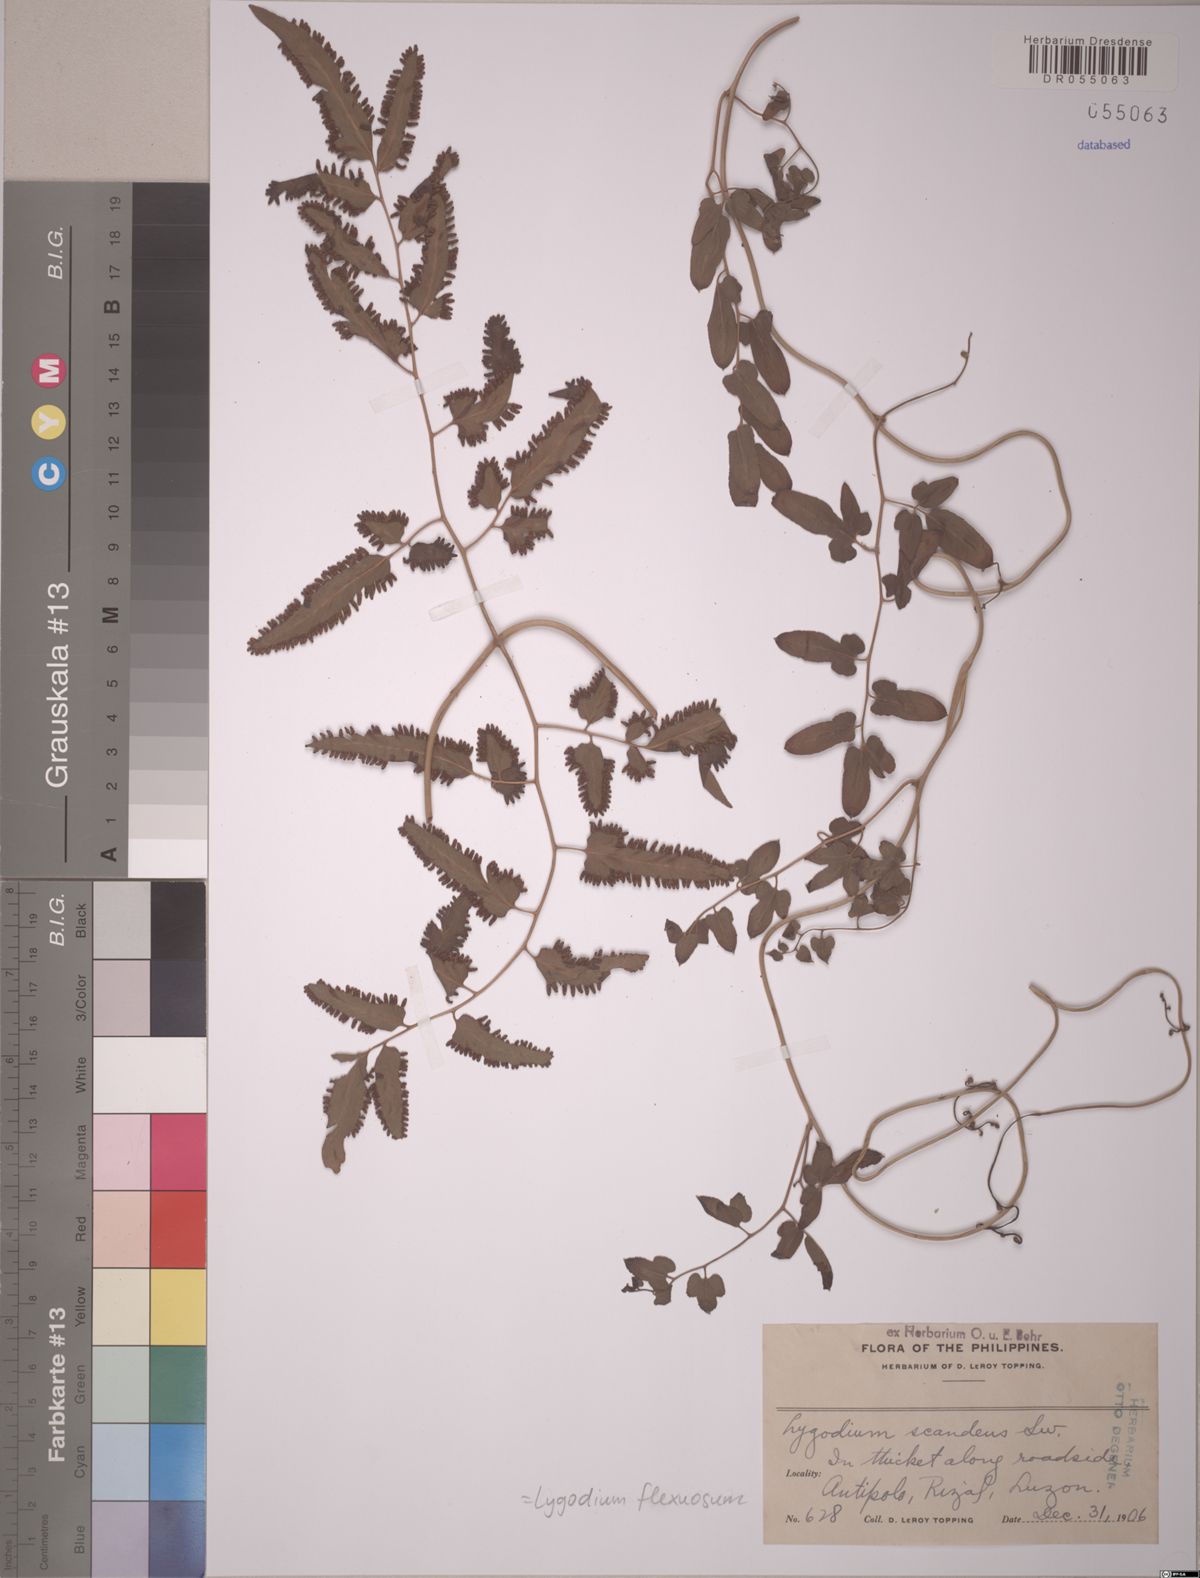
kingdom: Plantae
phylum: Tracheophyta
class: Polypodiopsida
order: Schizaeales
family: Lygodiaceae
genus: Lygodium
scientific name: Lygodium flexuosum
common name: Maidenhair creeper
